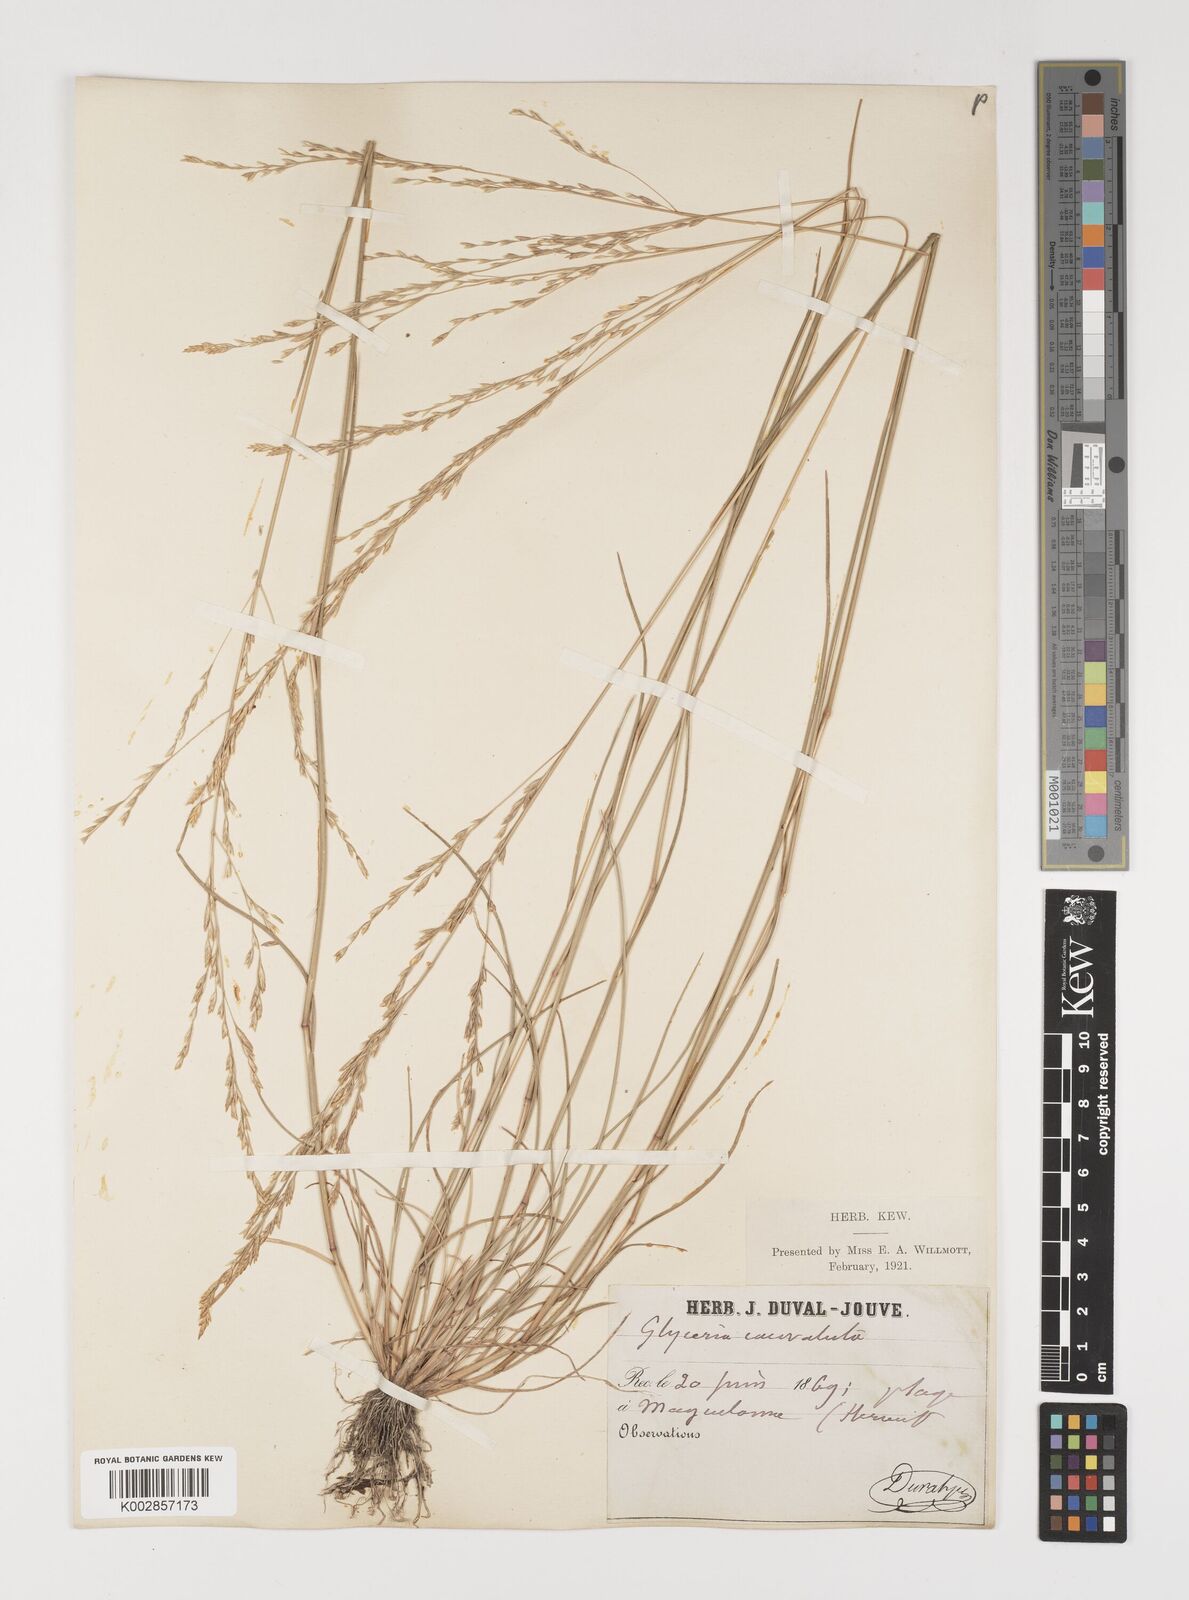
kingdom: Plantae
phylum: Tracheophyta
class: Liliopsida
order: Poales
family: Poaceae
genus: Puccinellia
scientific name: Puccinellia convoluta
